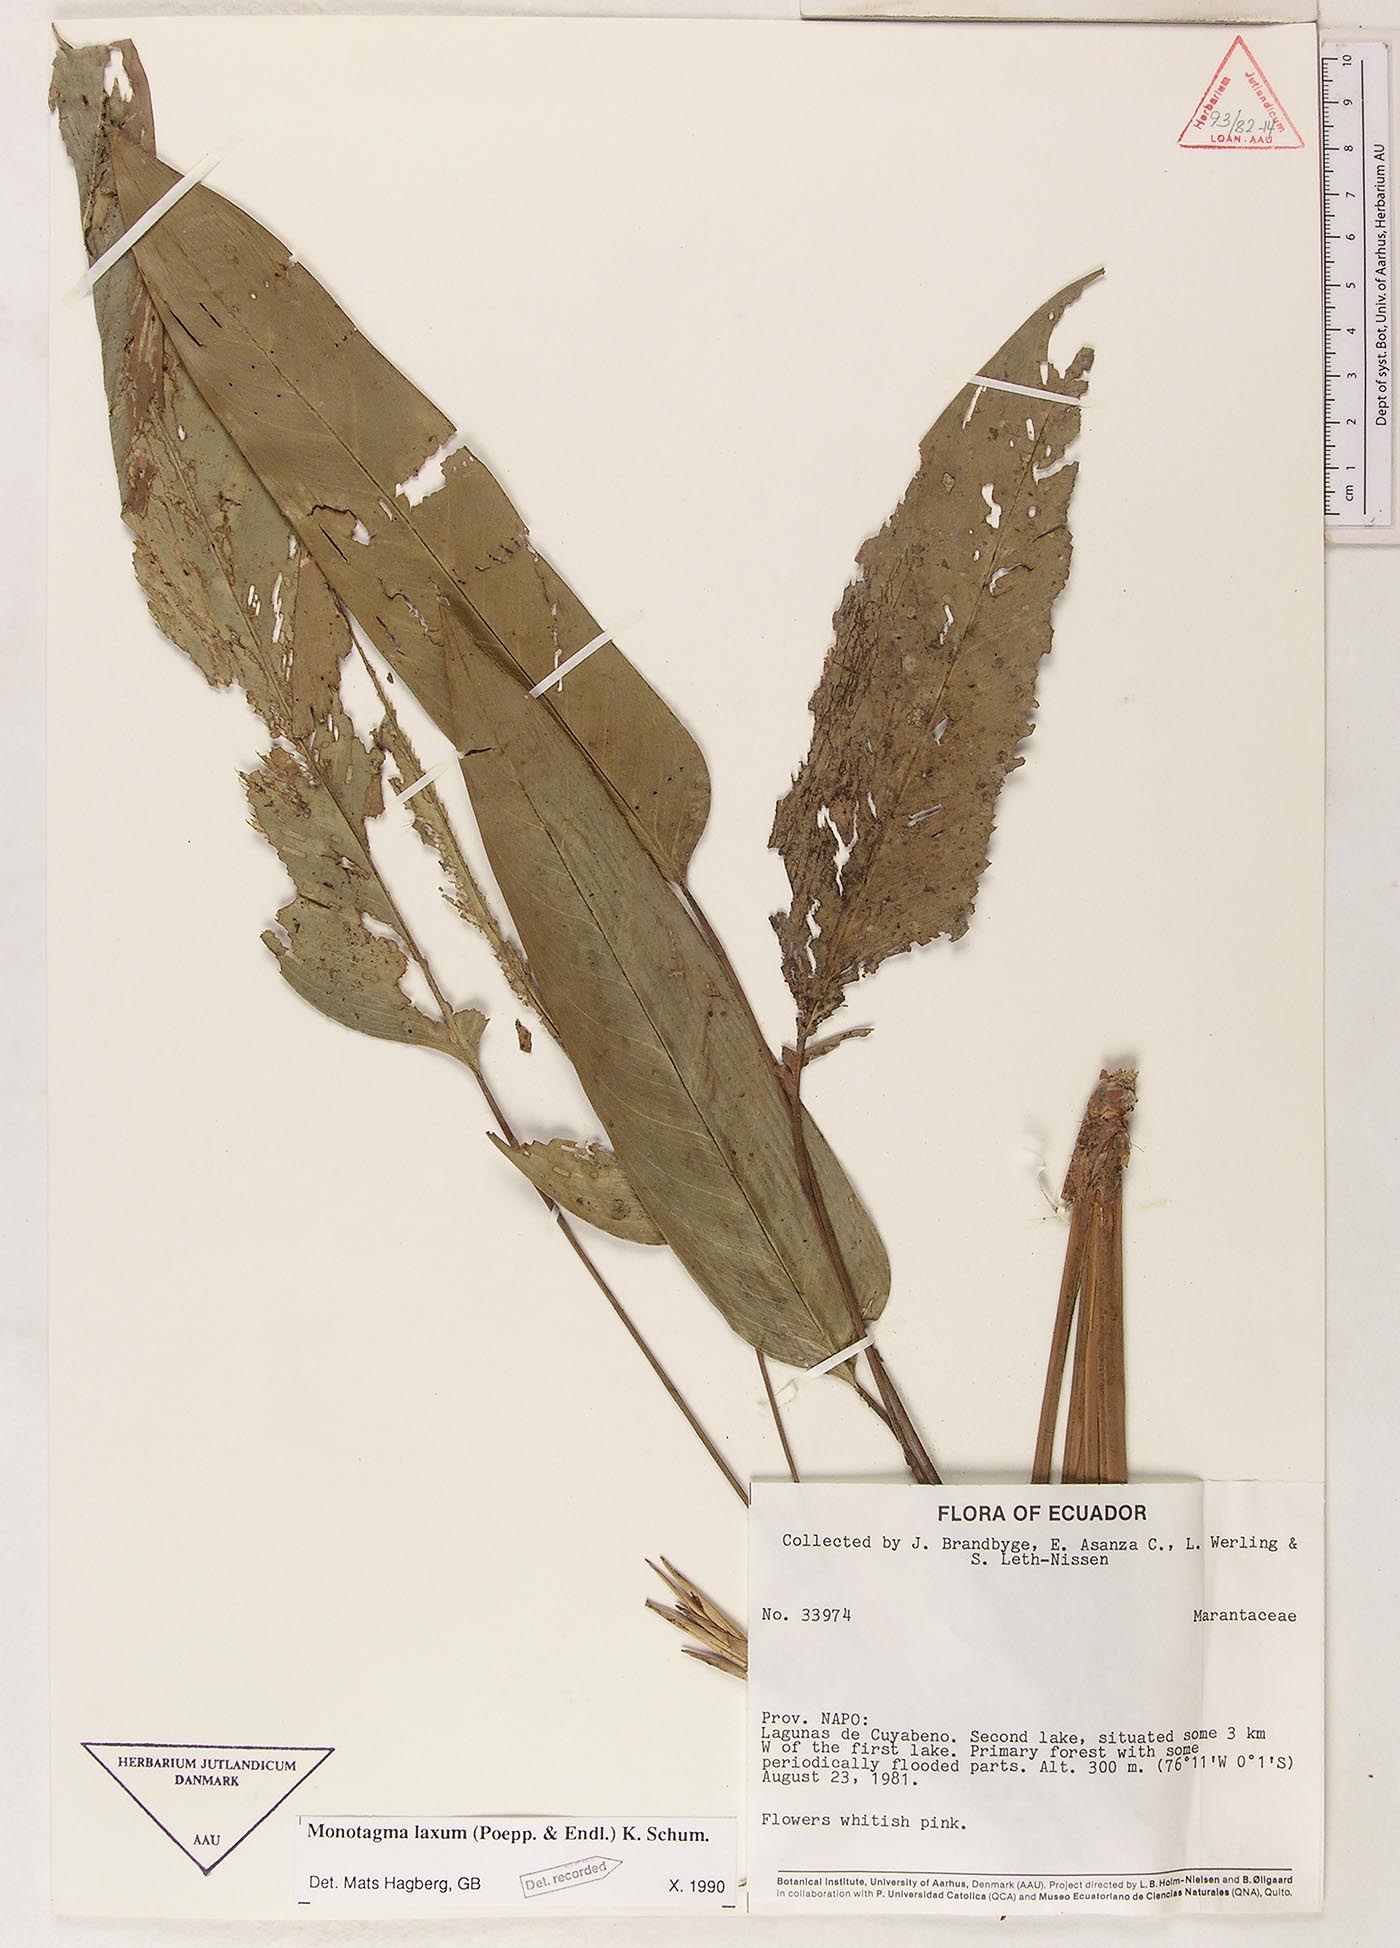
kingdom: Plantae
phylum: Tracheophyta
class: Liliopsida
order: Zingiberales
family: Marantaceae
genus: Monotagma
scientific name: Monotagma laxum
